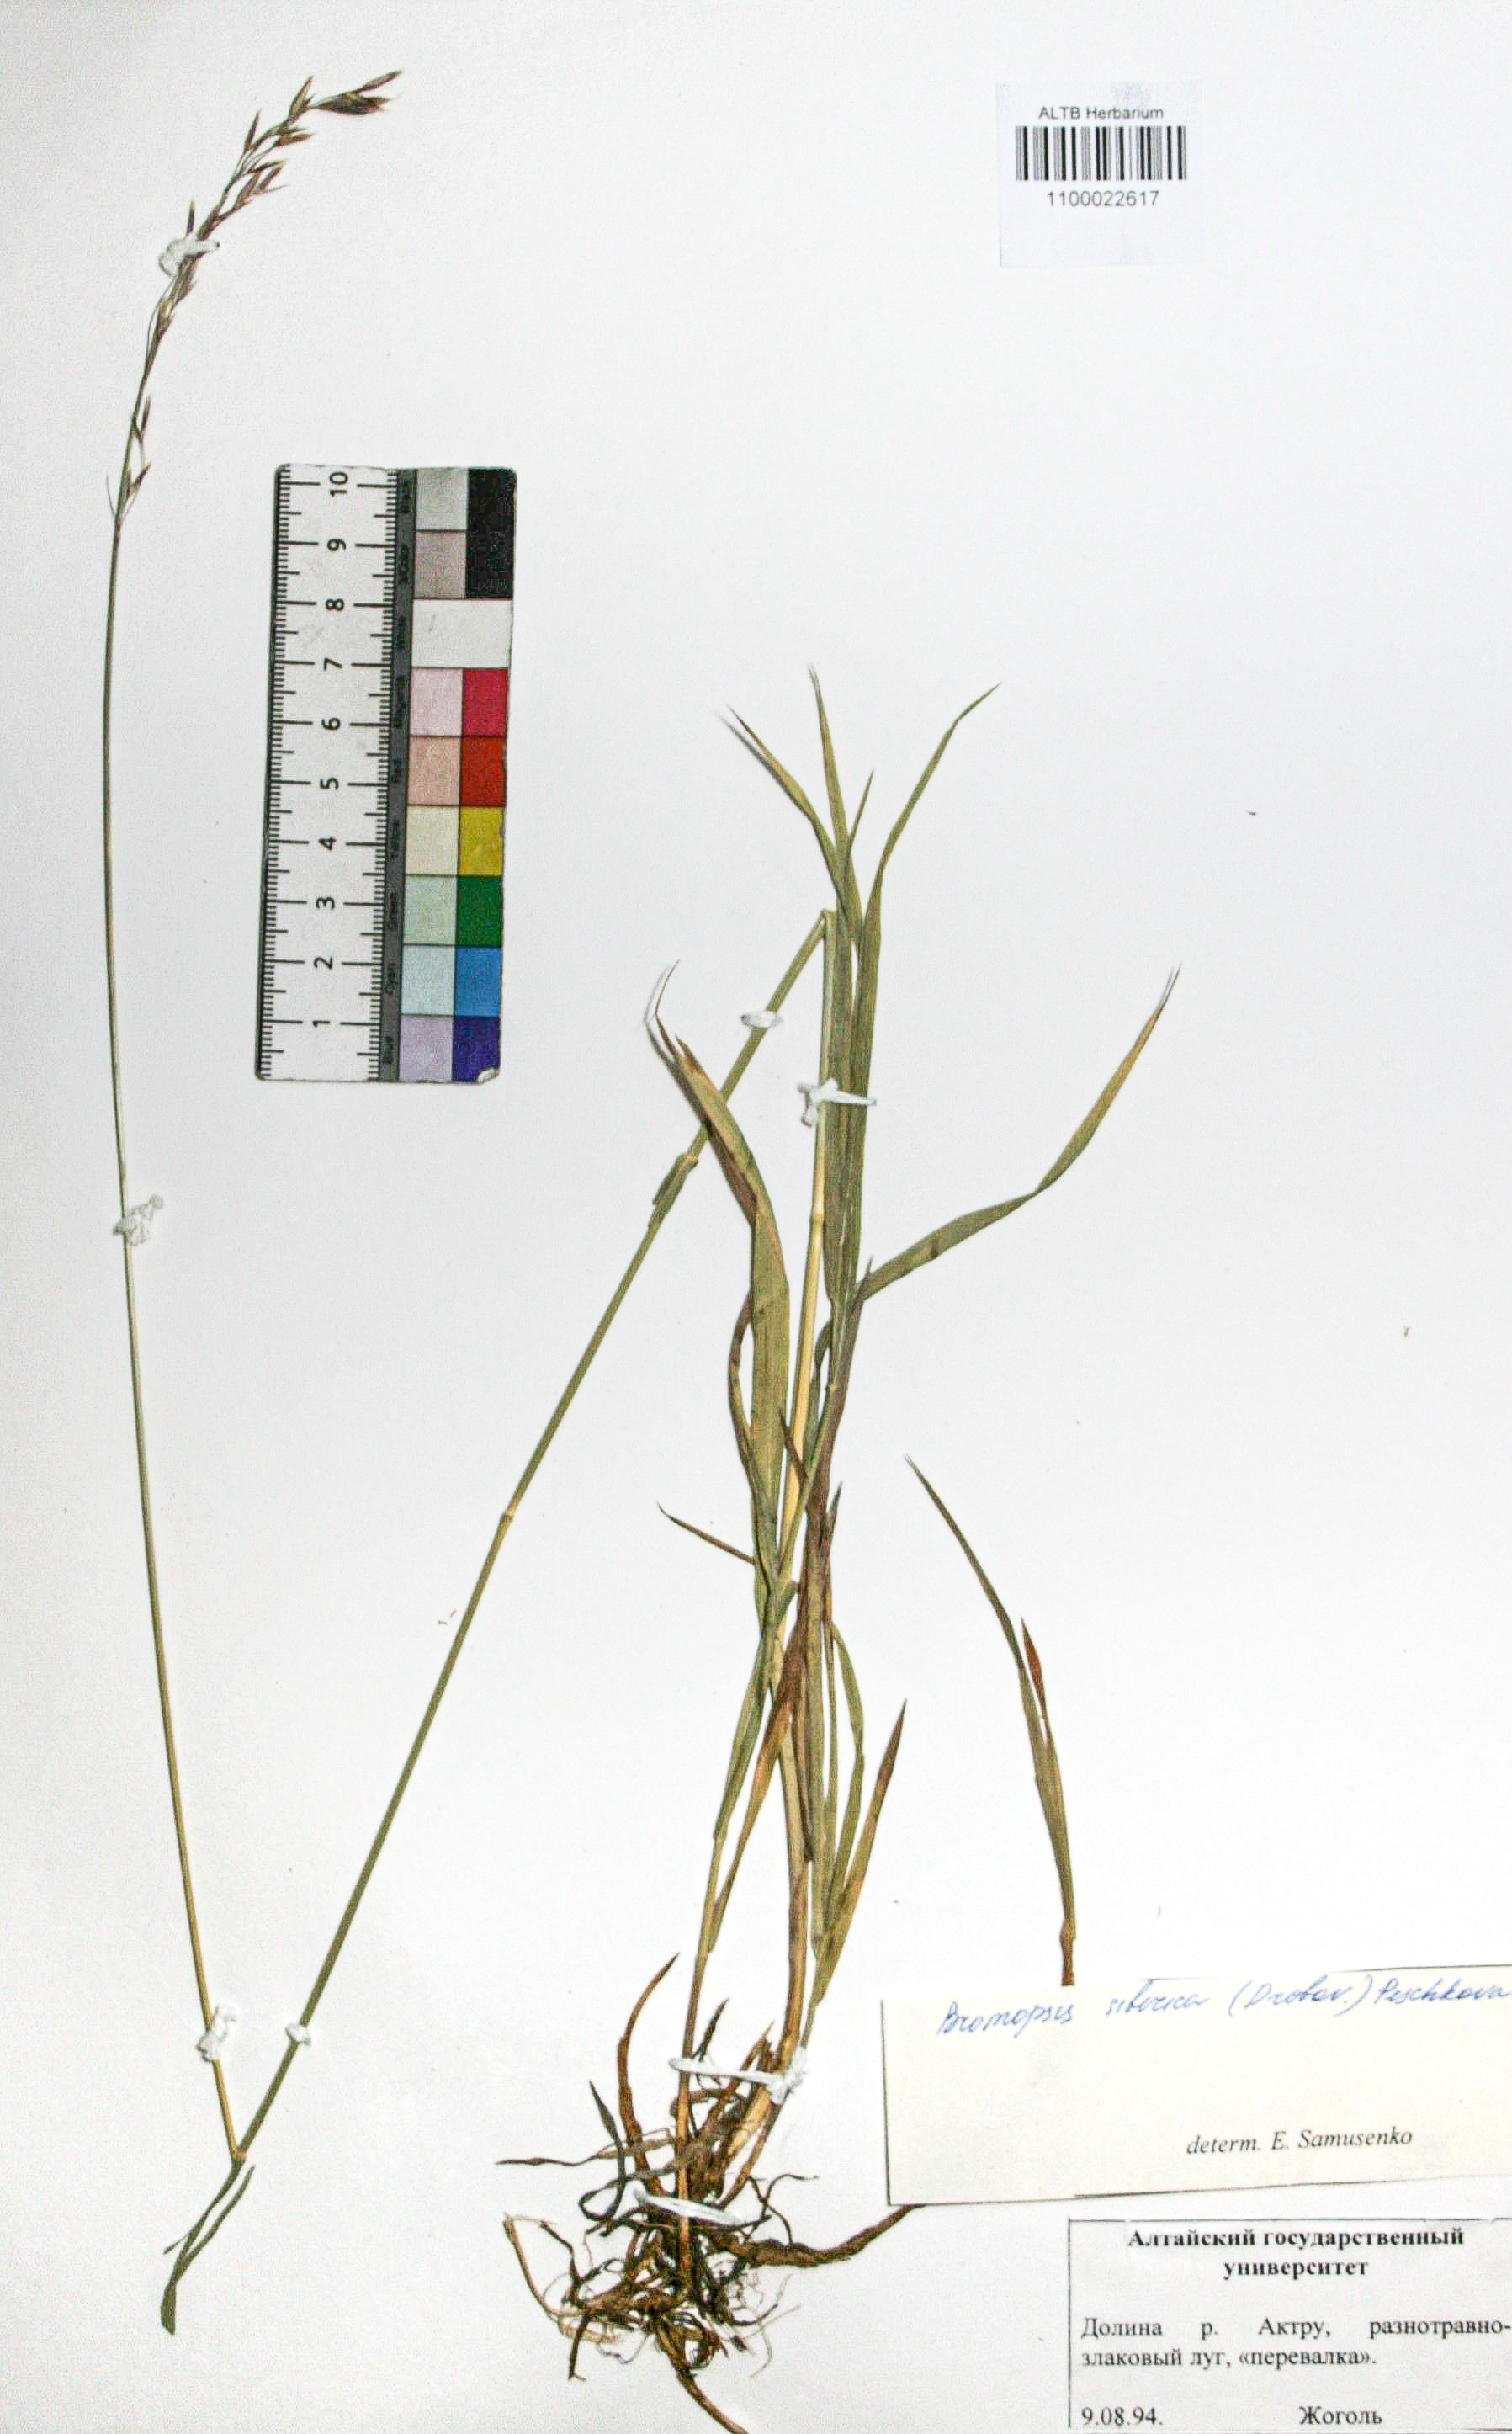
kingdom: Plantae
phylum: Tracheophyta
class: Liliopsida
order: Poales
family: Poaceae
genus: Bromus
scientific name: Bromus pumpellianus
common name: Pumpelly's brome
